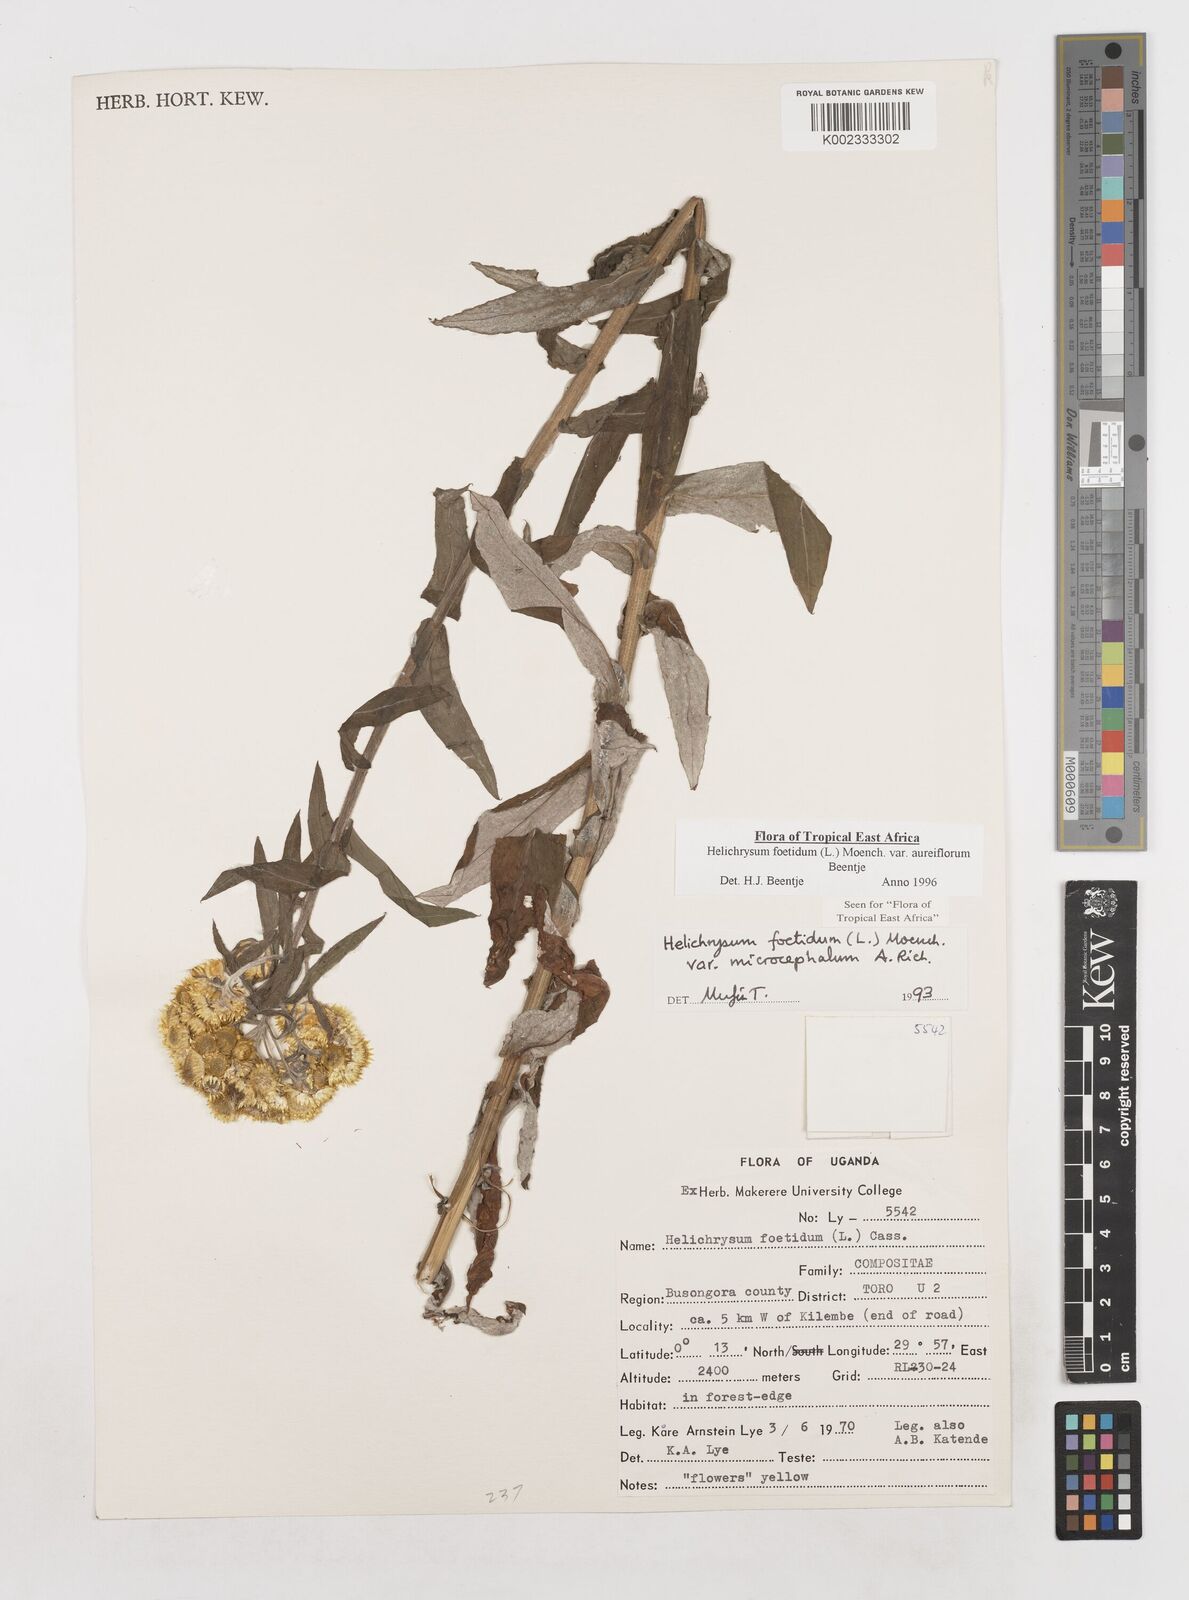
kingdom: Plantae
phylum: Tracheophyta
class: Magnoliopsida
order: Asterales
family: Asteraceae
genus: Helichrysum
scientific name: Helichrysum foetidum
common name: Stinking everlasting
